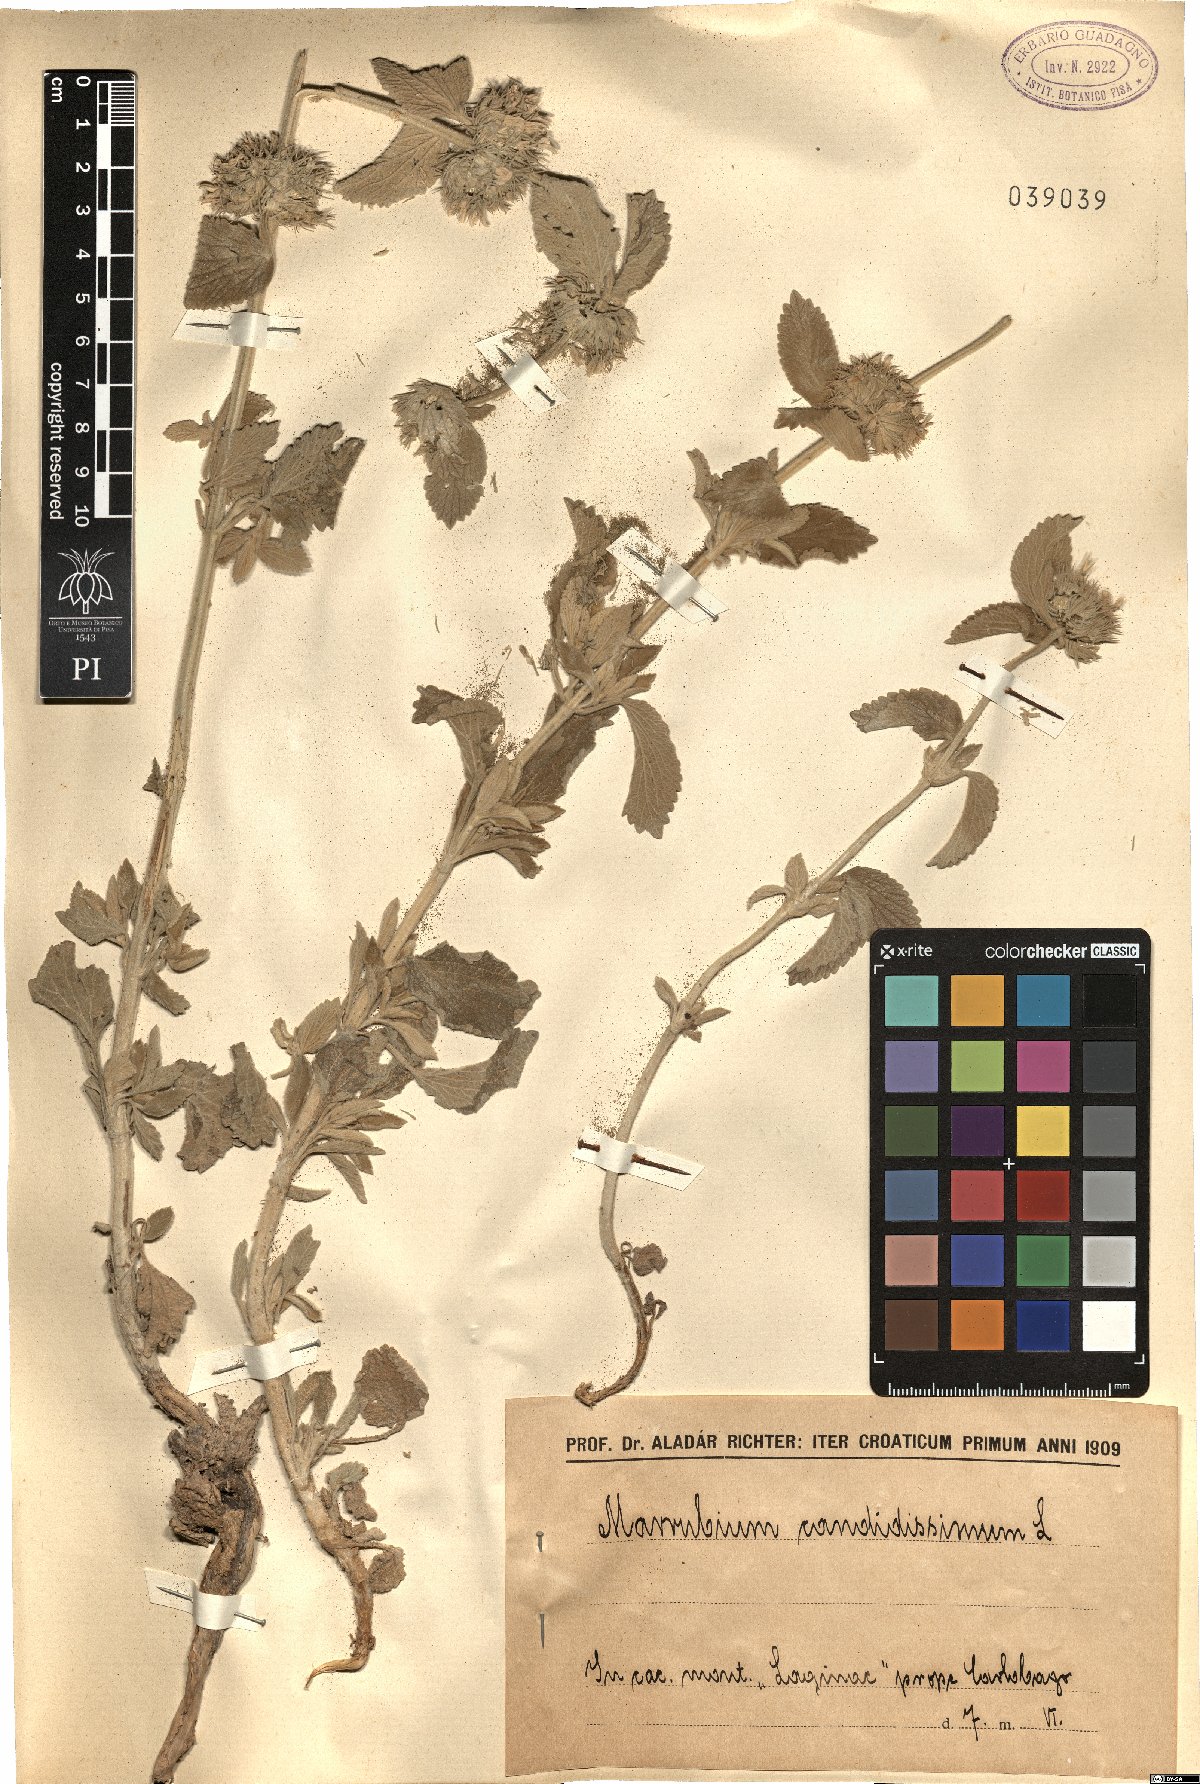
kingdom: Plantae
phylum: Tracheophyta
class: Magnoliopsida
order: Lamiales
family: Lamiaceae
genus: Marrubium
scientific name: Marrubium peregrinum
